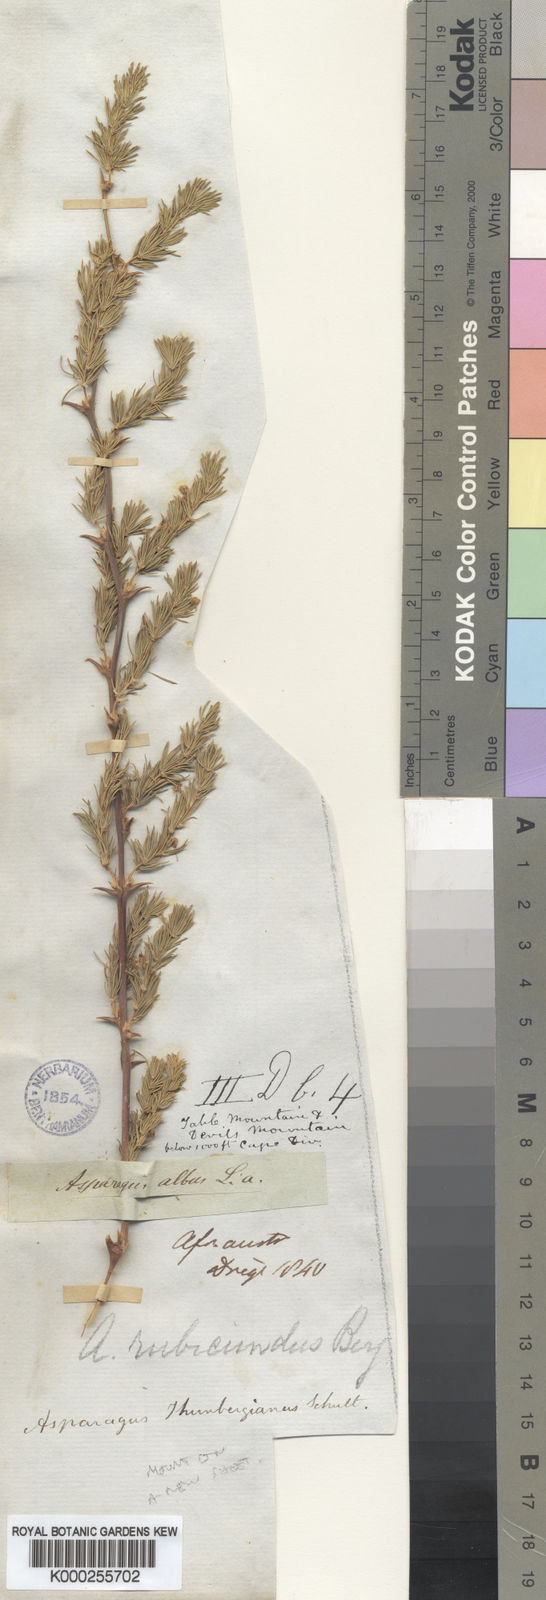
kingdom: Plantae
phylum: Tracheophyta
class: Liliopsida
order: Asparagales
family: Asparagaceae
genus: Asparagus
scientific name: Asparagus rubicundus
